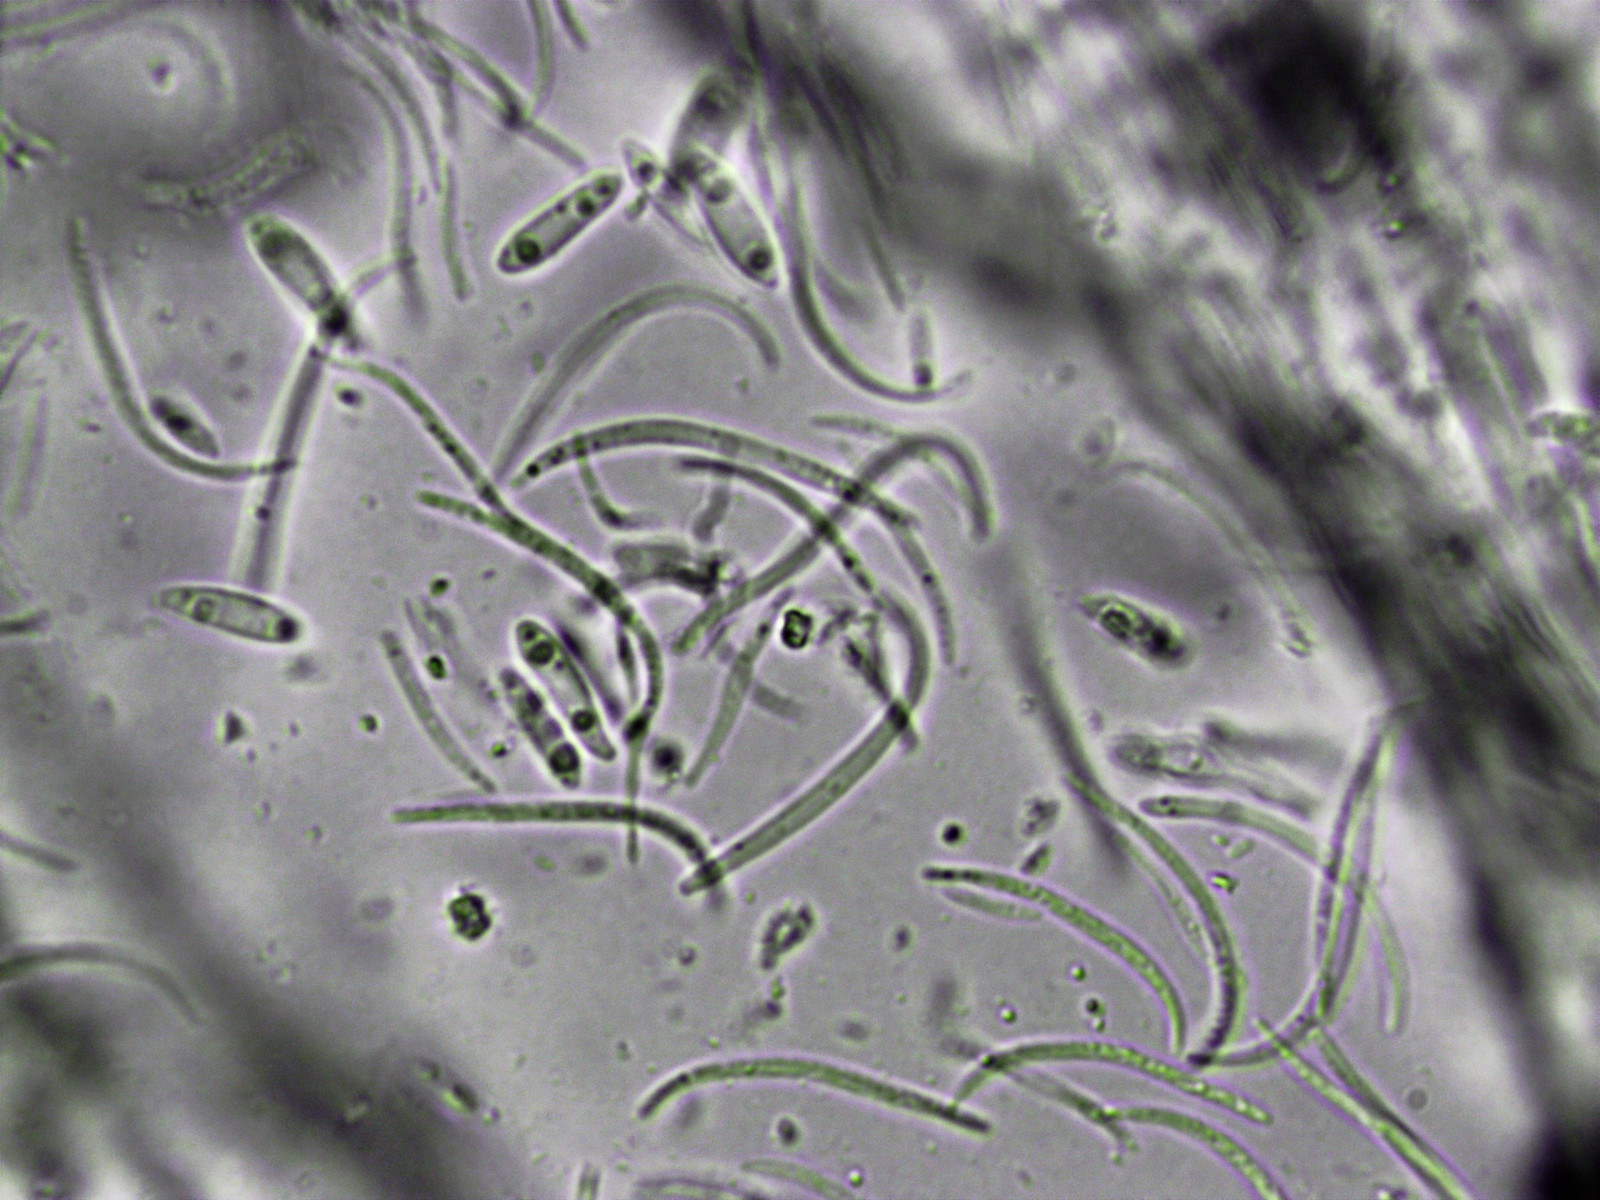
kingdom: Fungi
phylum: Ascomycota
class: Sordariomycetes
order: Diaporthales
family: Diaporthaceae
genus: Diaporthe
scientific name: Diaporthe arctii
